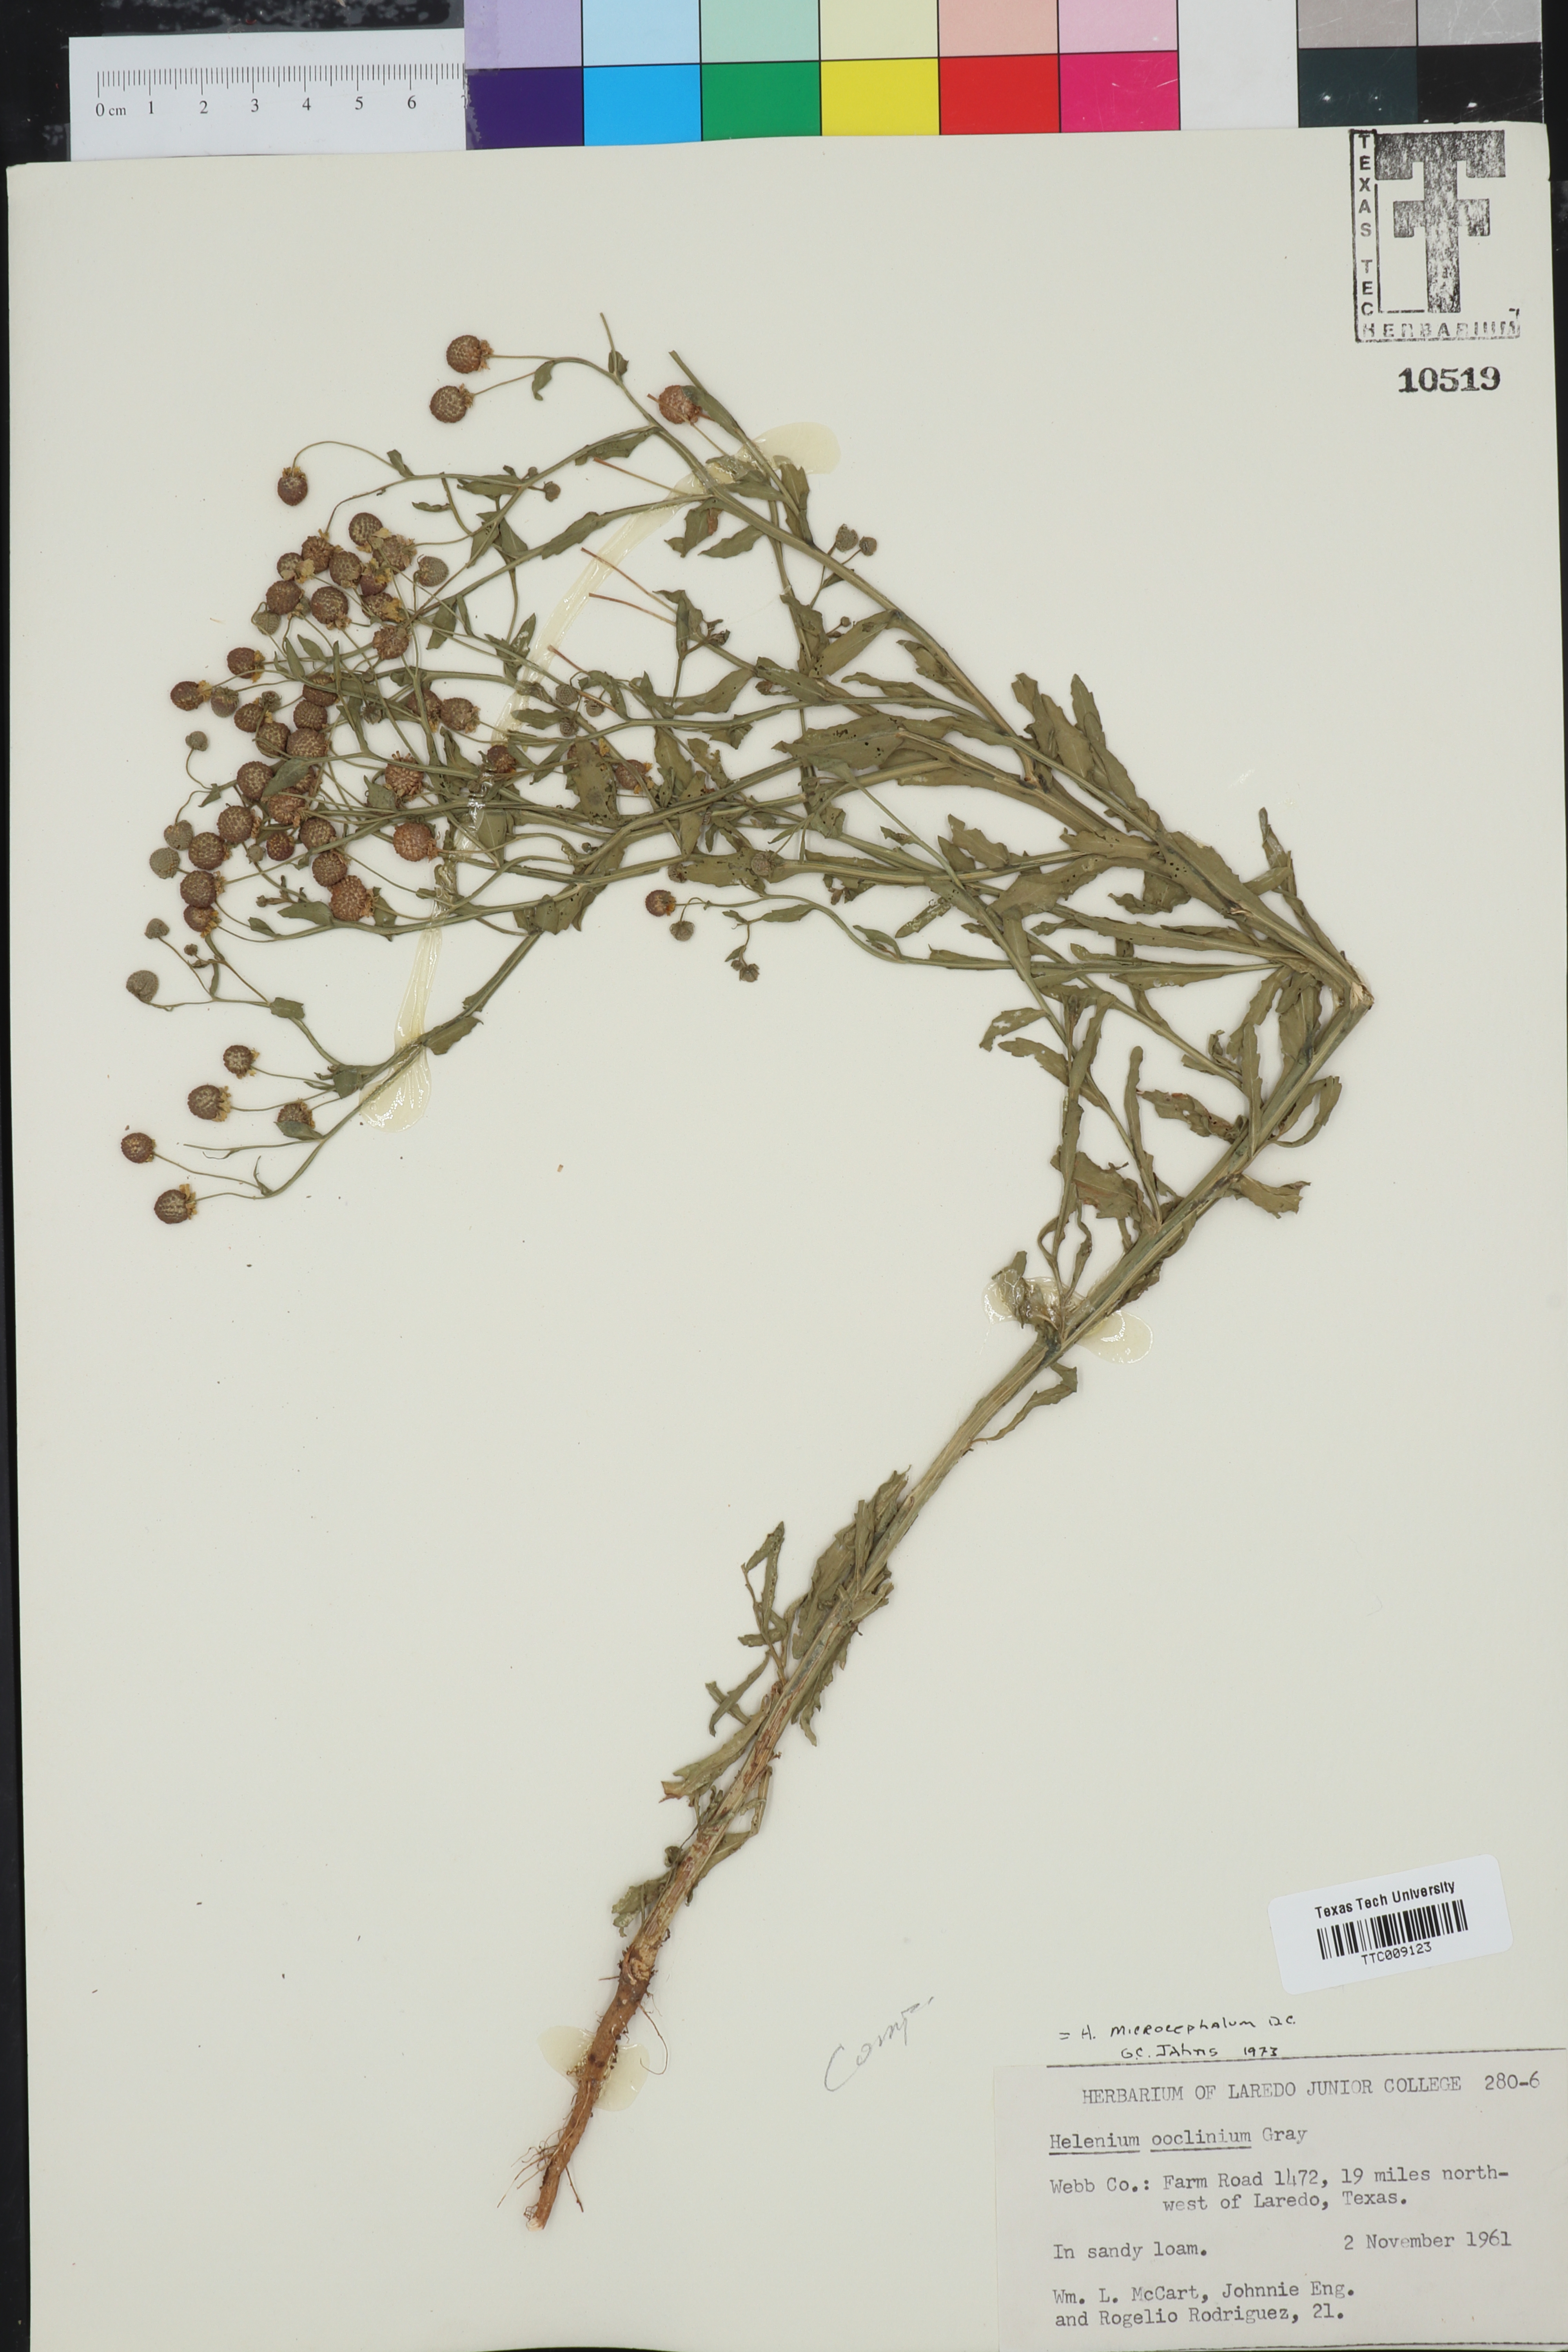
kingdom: Plantae
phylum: Tracheophyta
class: Magnoliopsida
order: Asterales
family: Asteraceae
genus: Helenium
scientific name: Helenium microcephalum
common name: Smallhead sneezeweed
